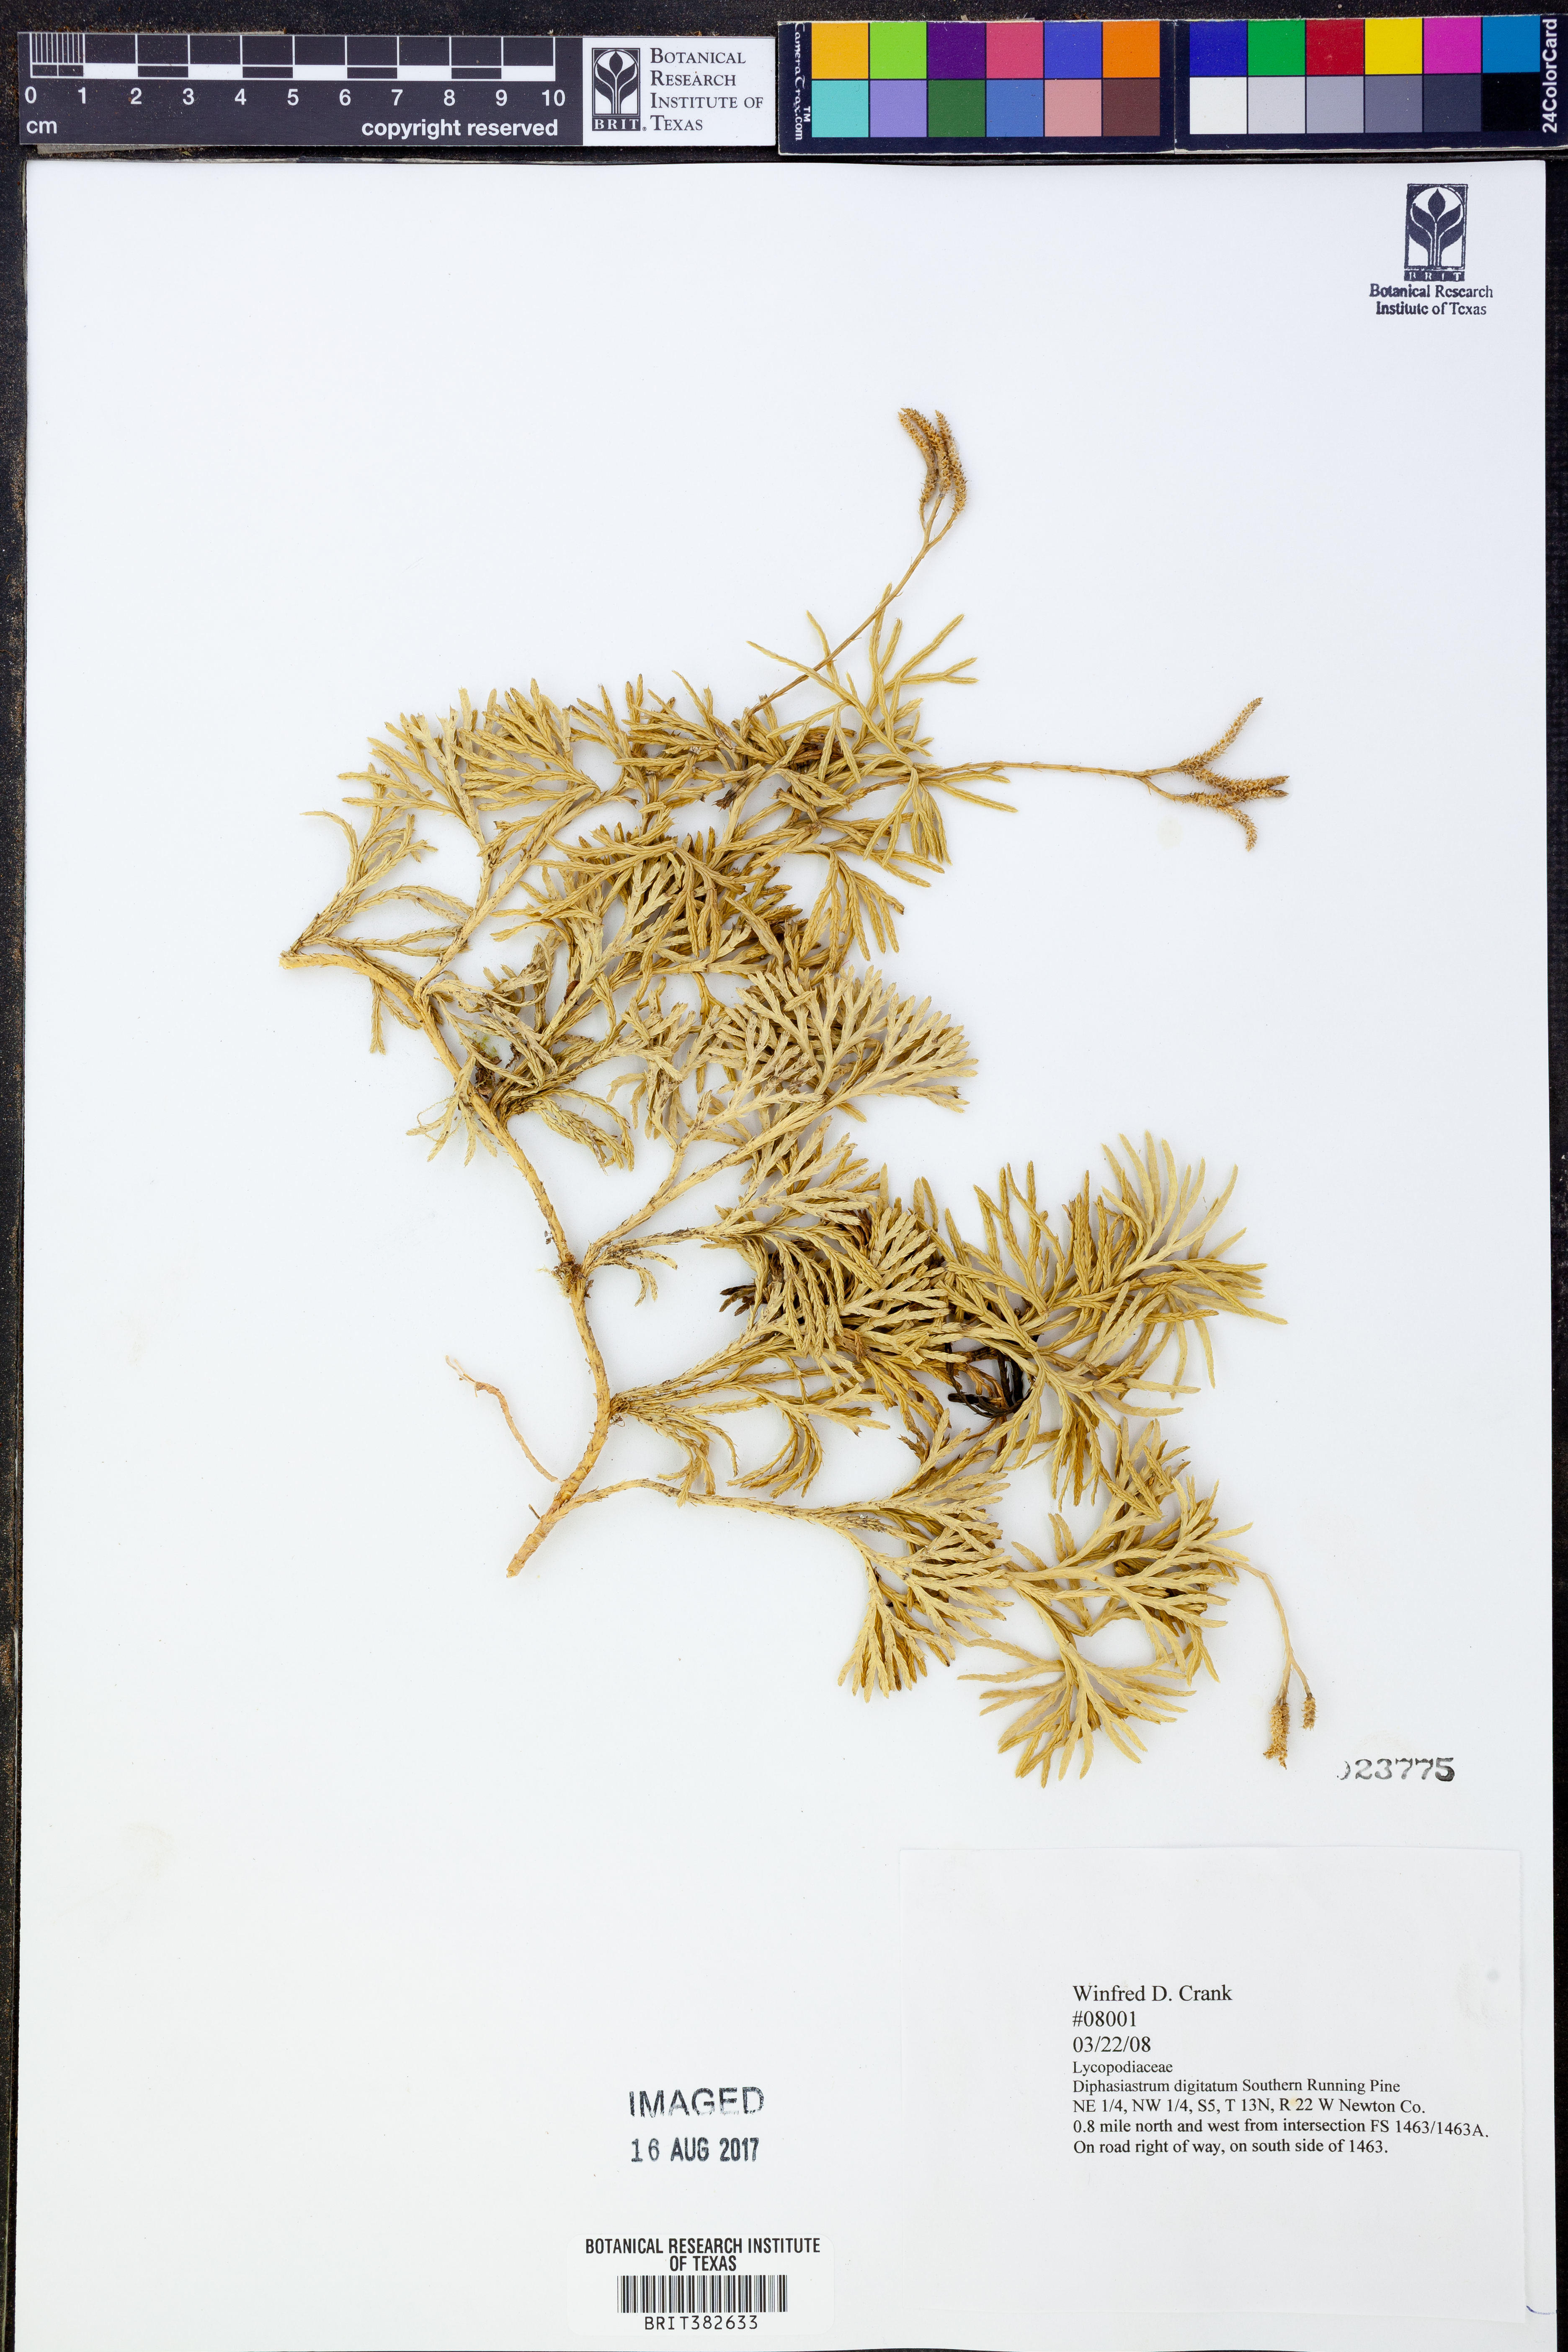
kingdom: Plantae
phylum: Tracheophyta
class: Lycopodiopsida
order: Lycopodiales
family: Lycopodiaceae
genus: Diphasiastrum
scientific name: Diphasiastrum digitatum
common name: Southern running-pine
